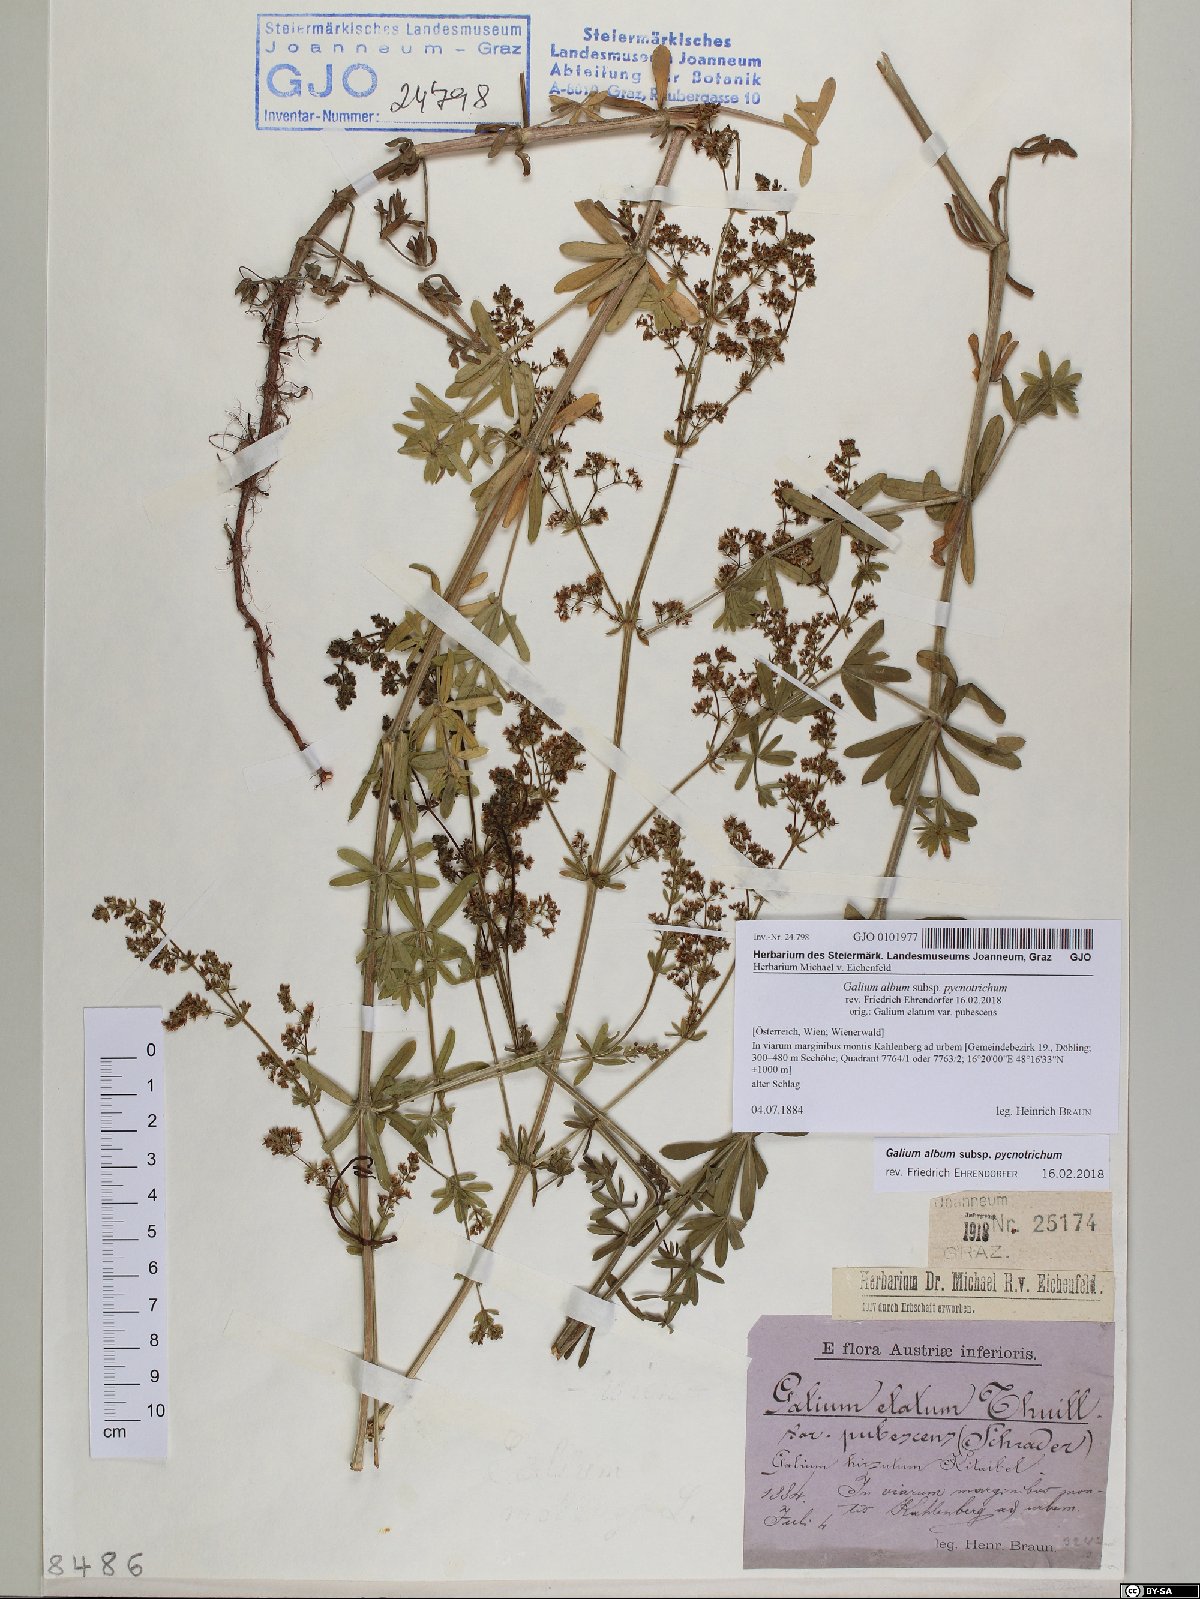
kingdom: Plantae
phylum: Tracheophyta
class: Magnoliopsida
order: Gentianales
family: Rubiaceae
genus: Galium
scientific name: Galium album
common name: White bedstraw
